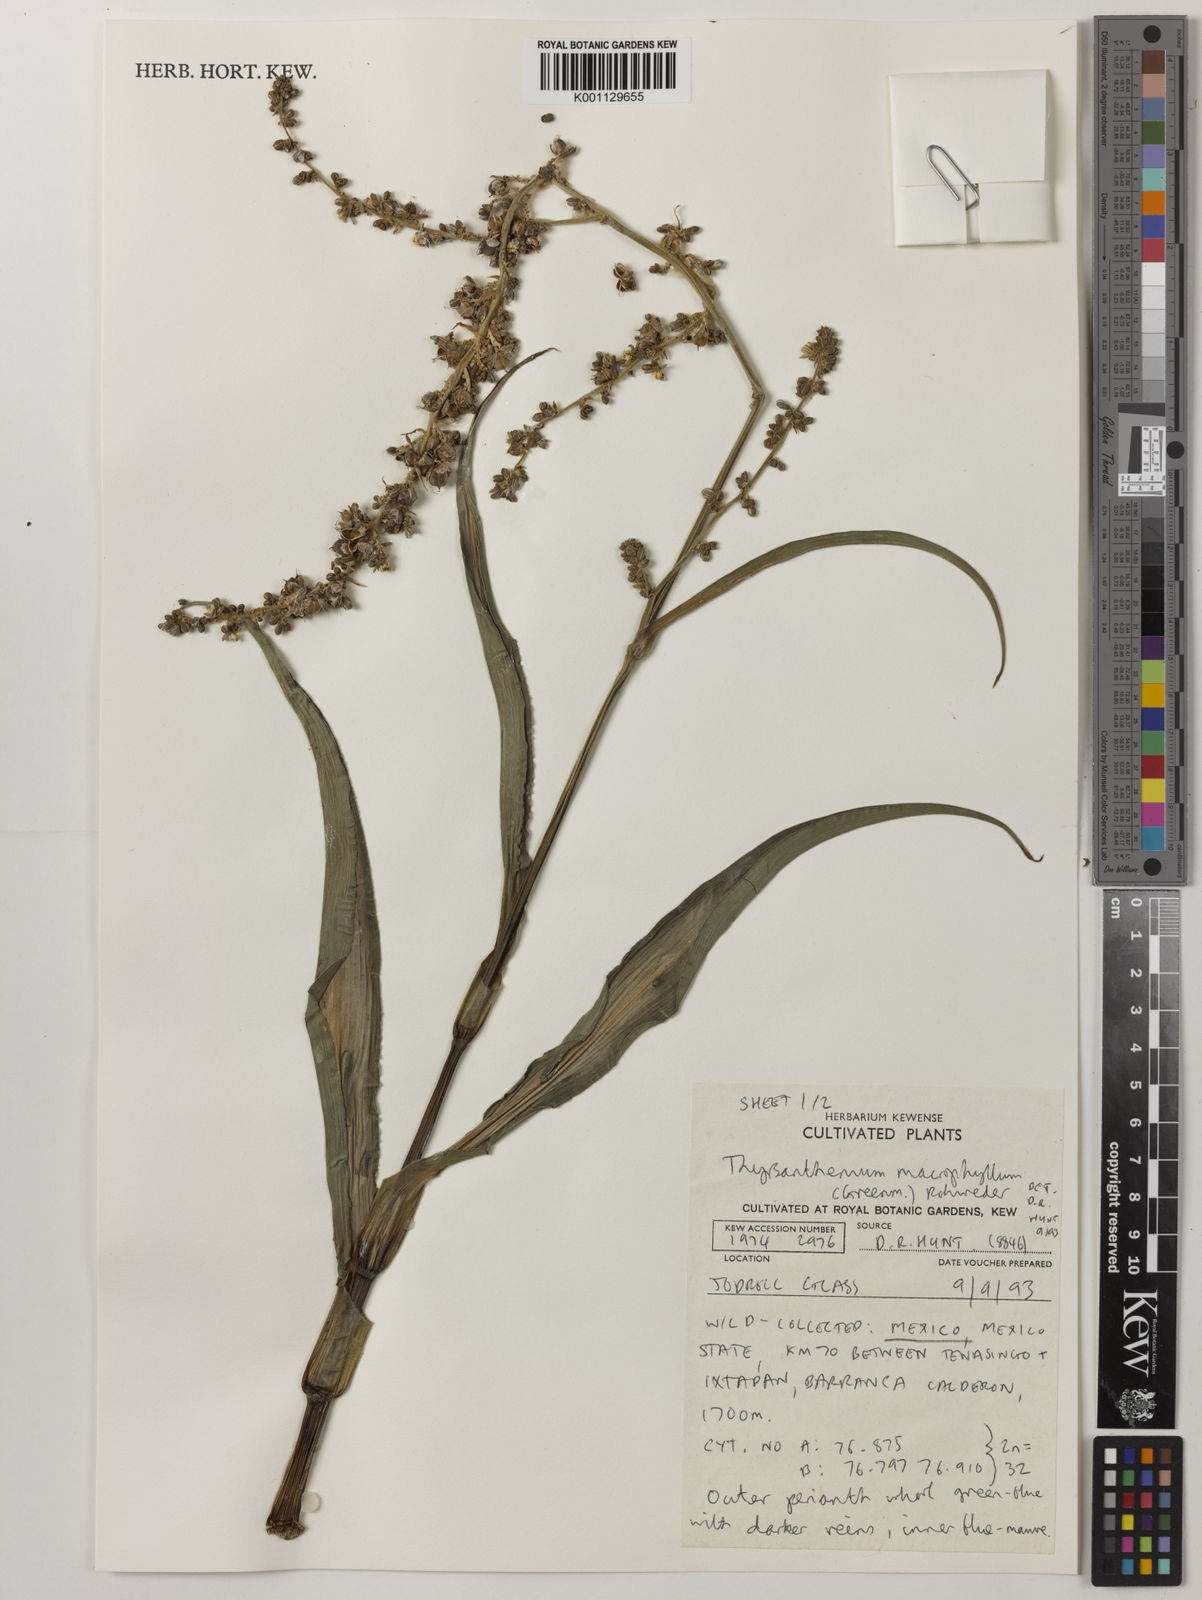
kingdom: Plantae
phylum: Tracheophyta
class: Liliopsida
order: Commelinales
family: Commelinaceae
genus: Thyrsanthemum
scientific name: Thyrsanthemum longifolium
